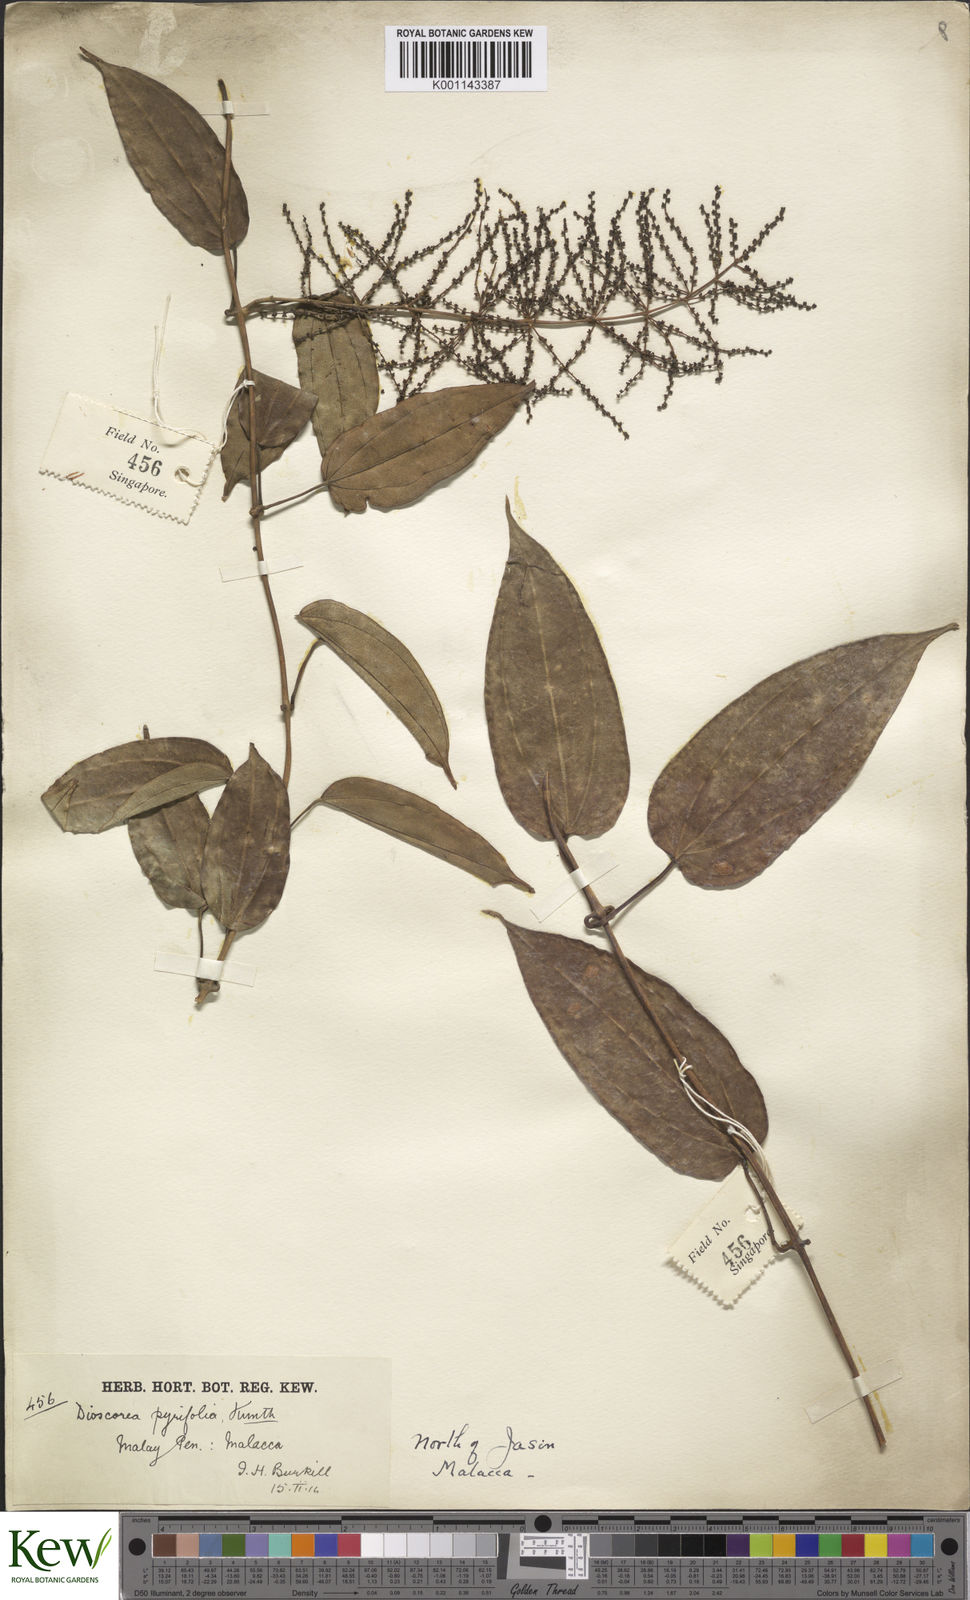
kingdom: Plantae
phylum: Tracheophyta
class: Liliopsida
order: Dioscoreales
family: Dioscoreaceae
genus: Dioscorea
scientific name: Dioscorea pyrifolia
